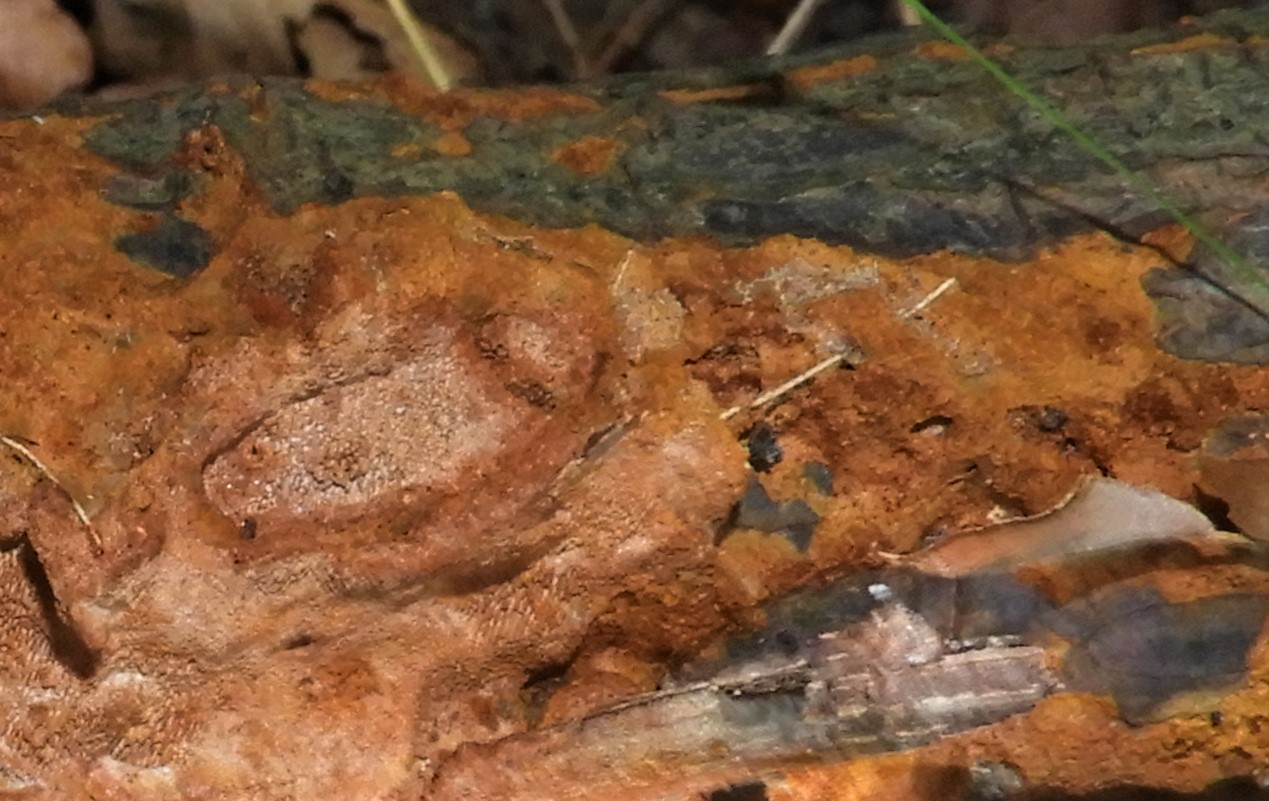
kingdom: Fungi
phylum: Basidiomycota
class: Agaricomycetes
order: Hymenochaetales
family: Hymenochaetaceae
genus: Fuscoporia
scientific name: Fuscoporia ferrea
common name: skorpe-ildporesvamp
